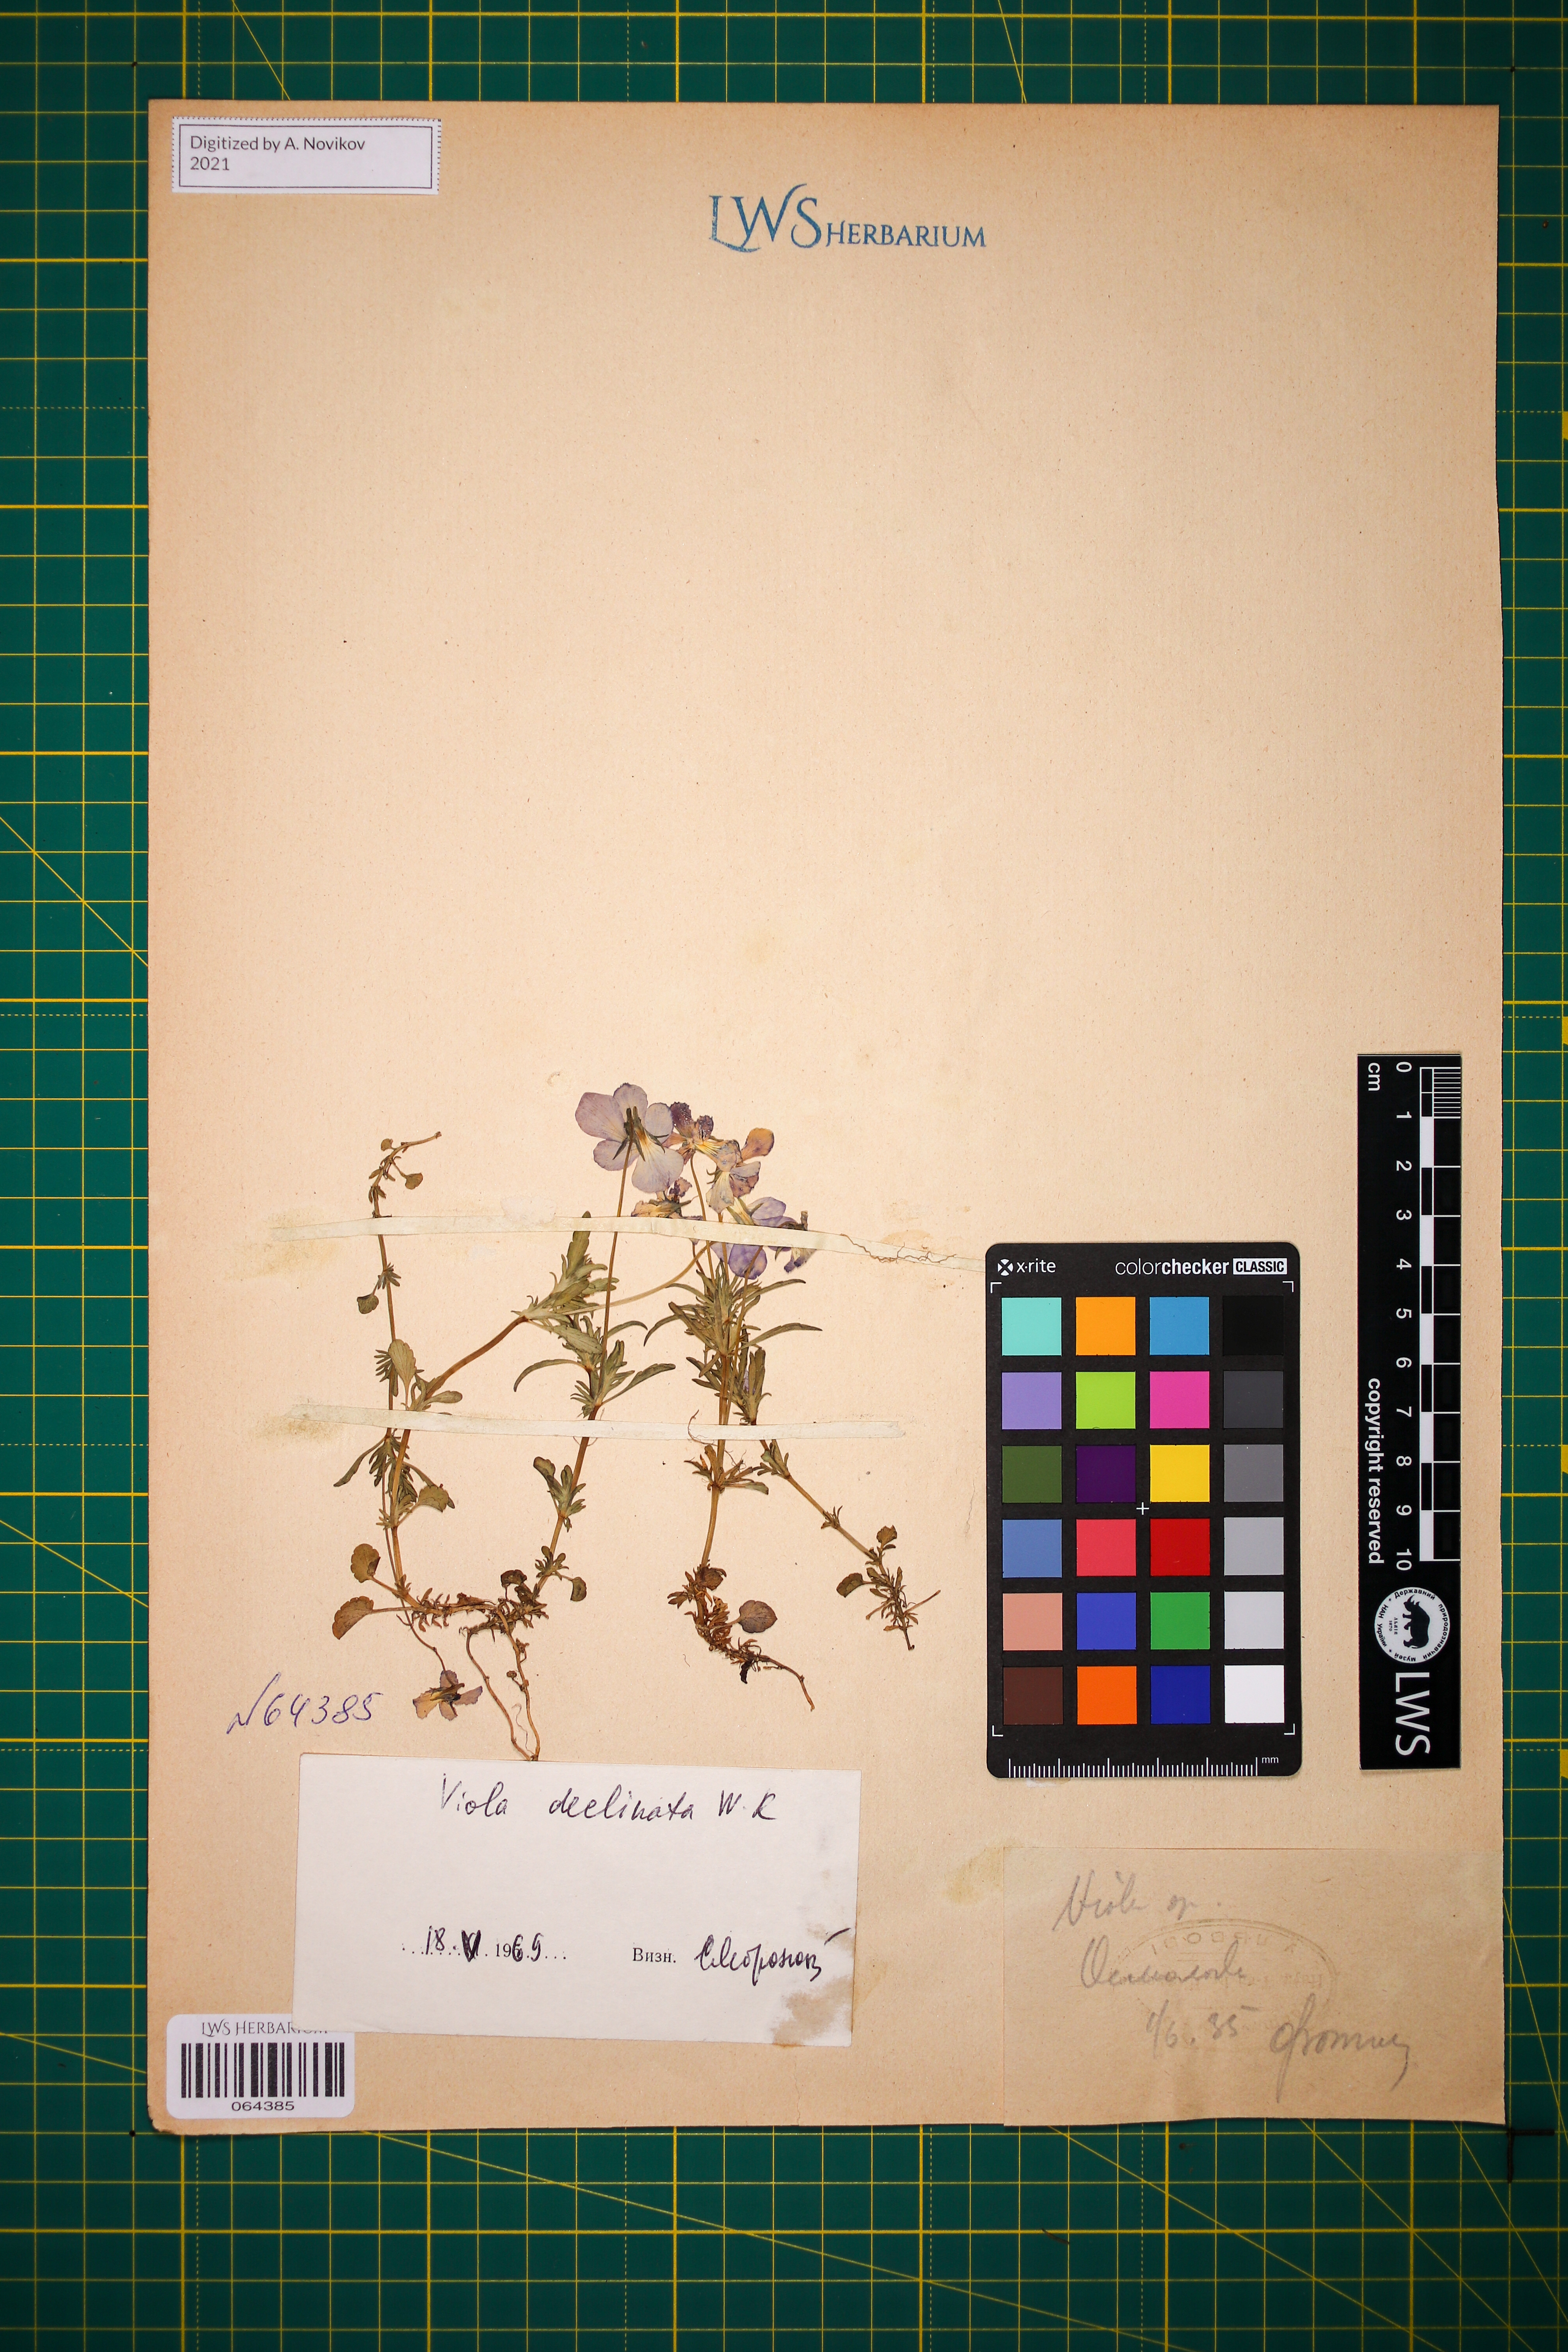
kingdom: Plantae
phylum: Tracheophyta
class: Magnoliopsida
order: Malpighiales
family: Violaceae
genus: Viola
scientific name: Viola declinata
